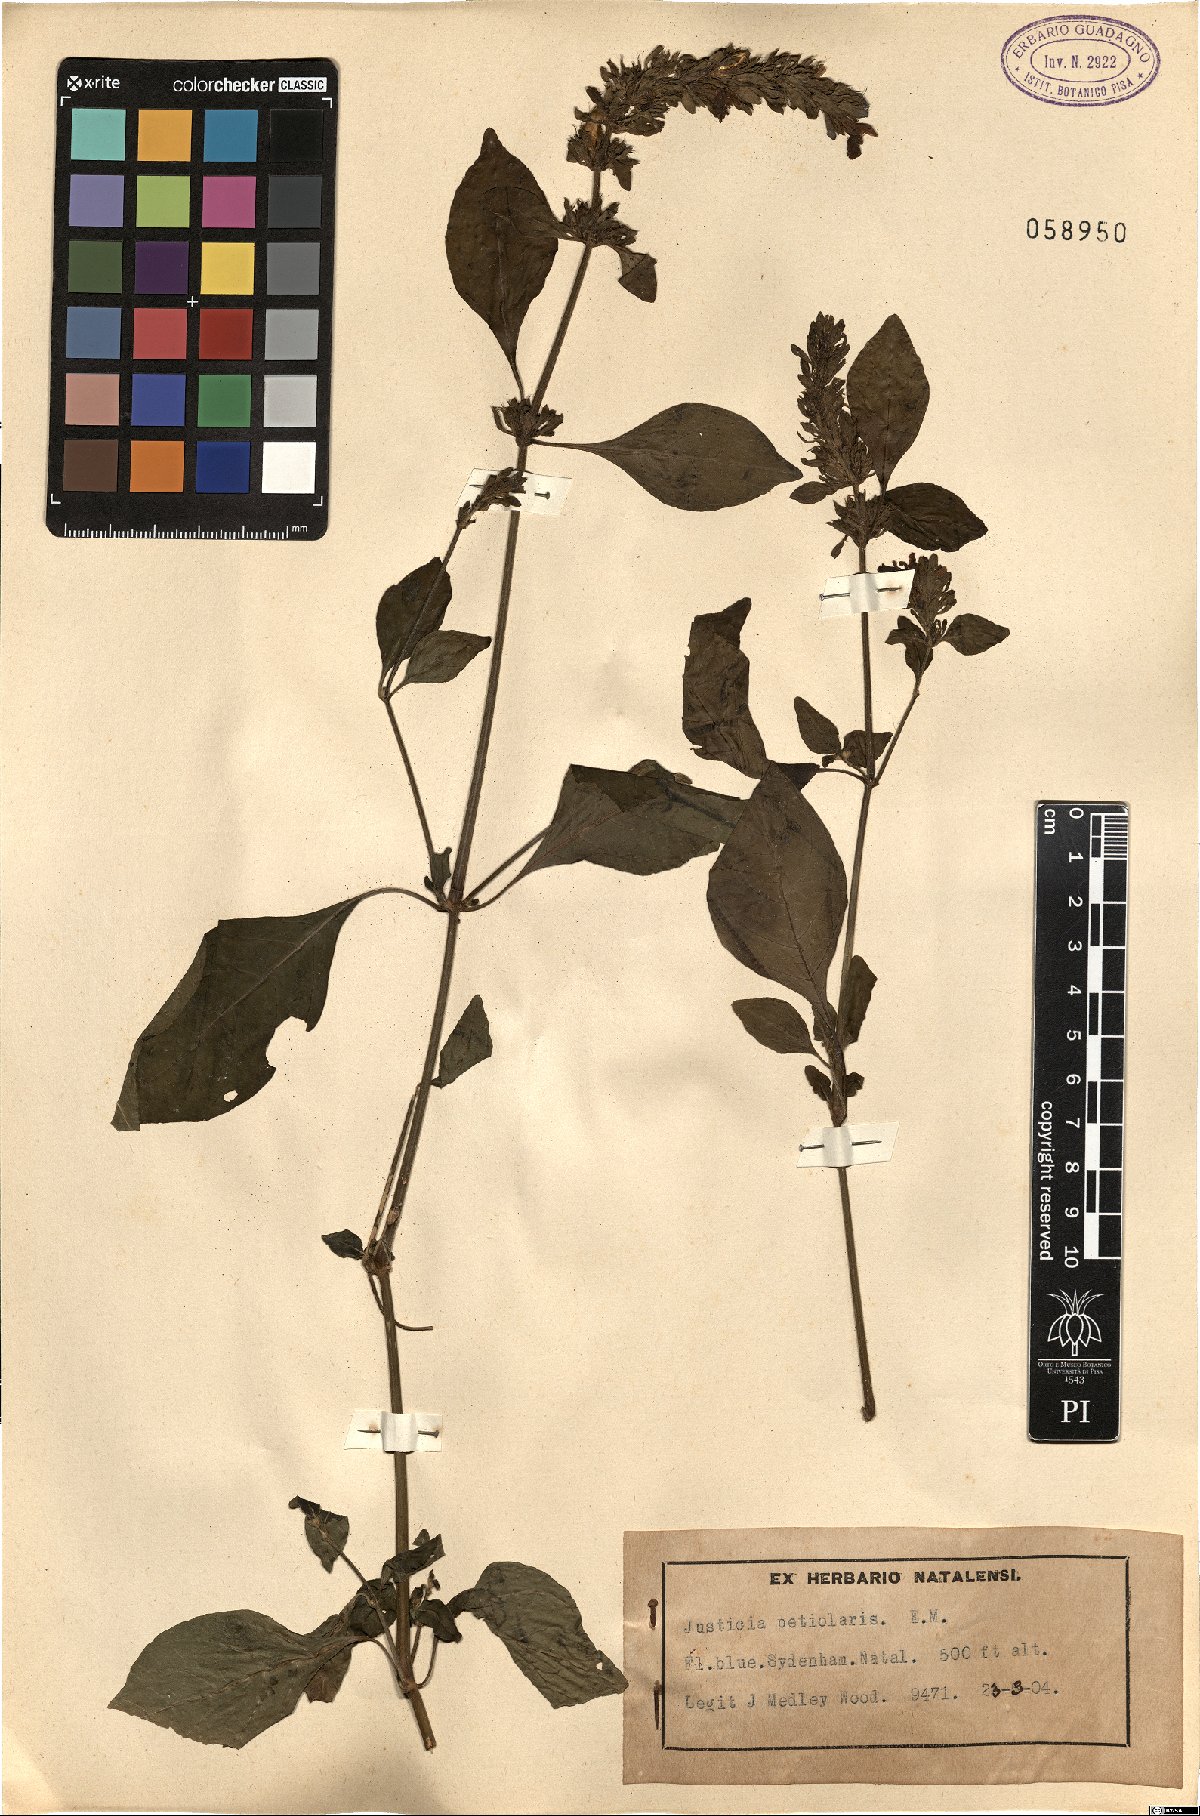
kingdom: Plantae
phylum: Tracheophyta
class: Magnoliopsida
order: Lamiales
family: Acanthaceae
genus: Justicia
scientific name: Justicia petiolaris
